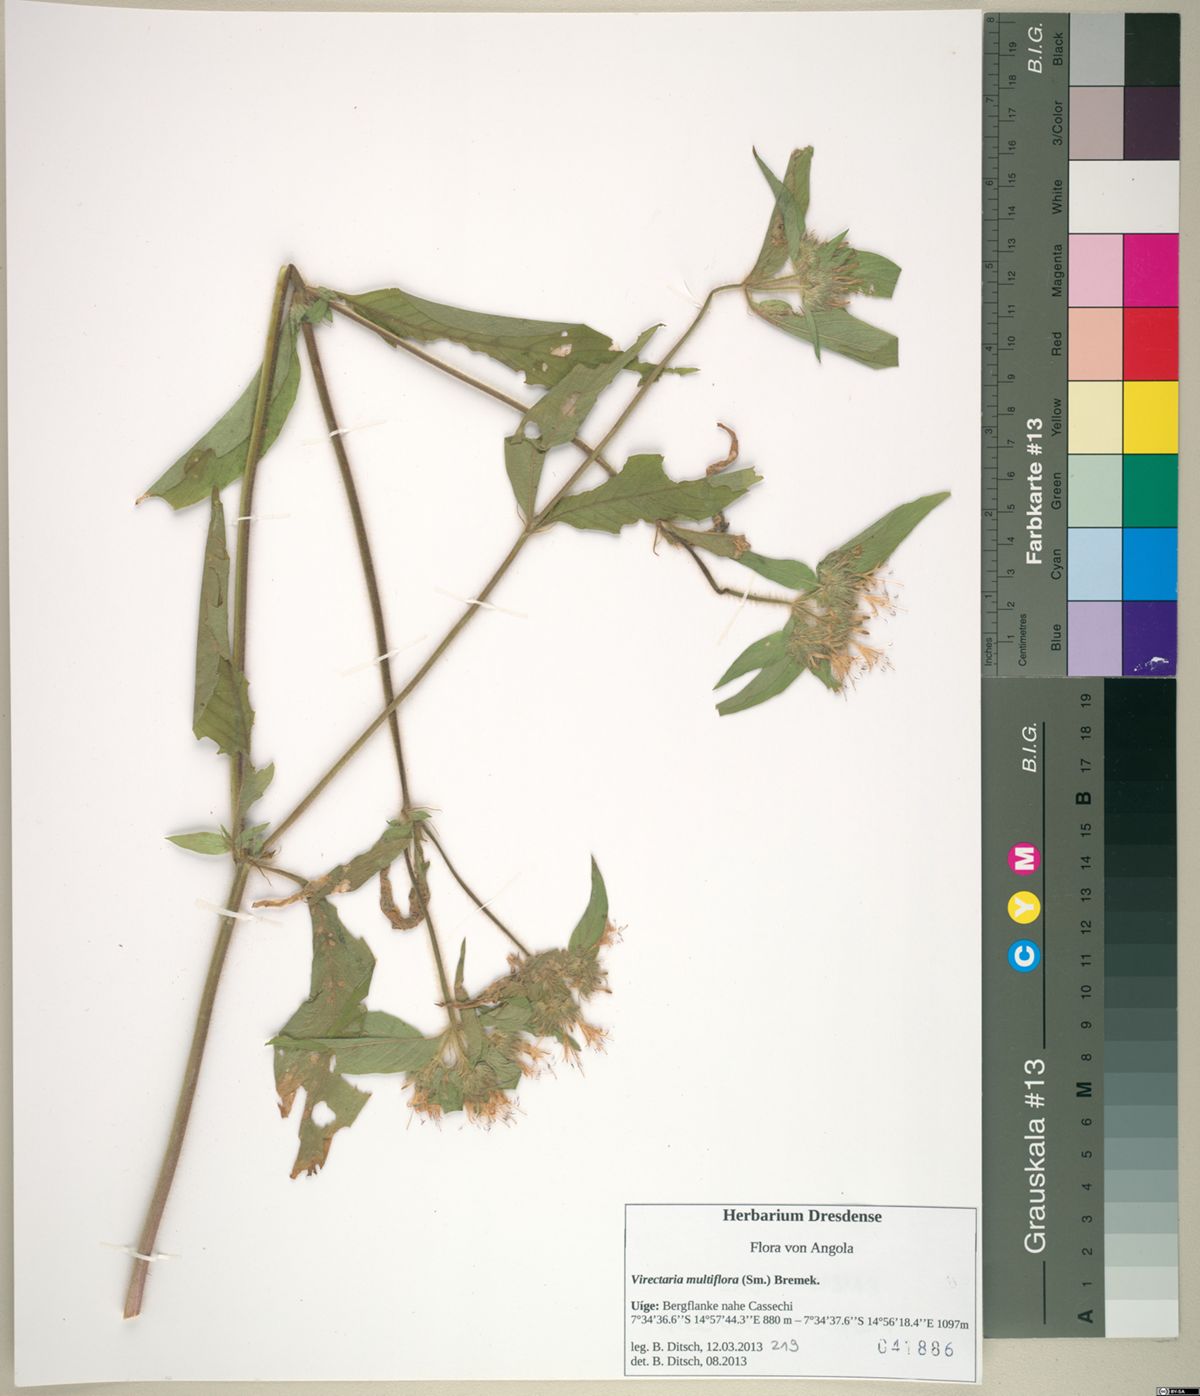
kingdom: Plantae
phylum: Tracheophyta
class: Magnoliopsida
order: Gentianales
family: Rubiaceae
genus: Virectaria
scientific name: Virectaria multiflora
